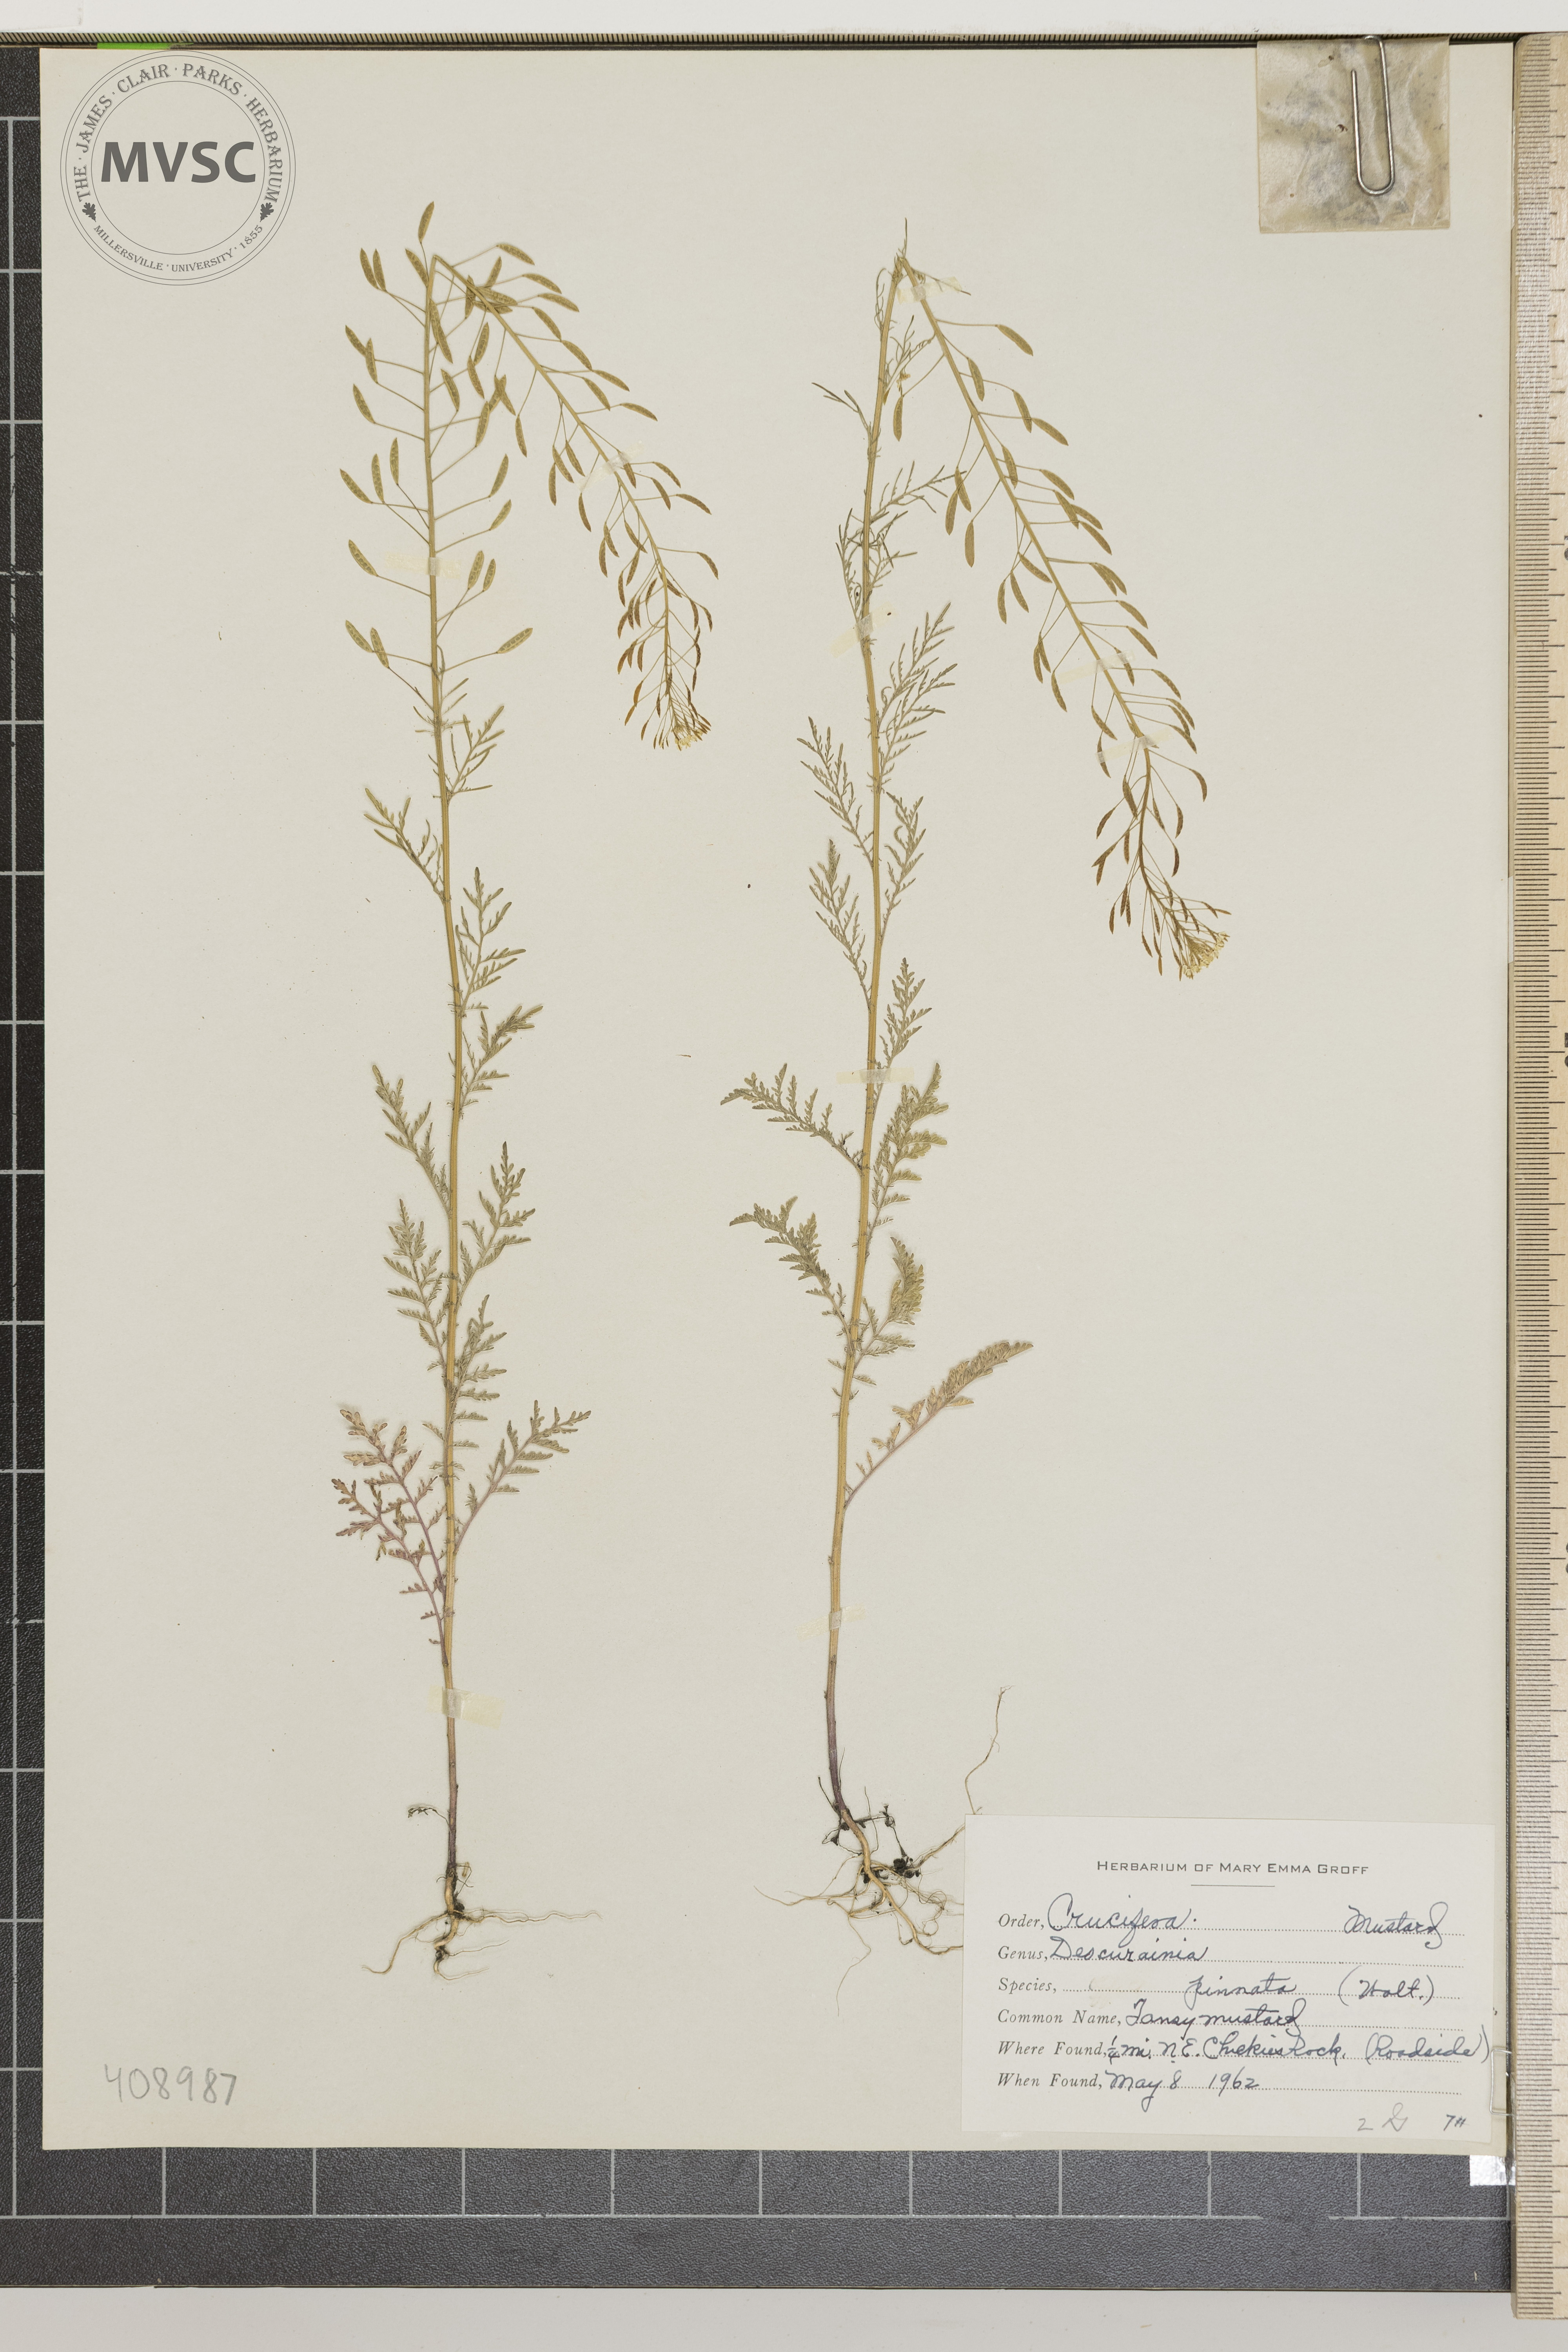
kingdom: Plantae
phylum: Tracheophyta
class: Magnoliopsida
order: Brassicales
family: Brassicaceae
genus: Descurainia
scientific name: Descurainia pinnata
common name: Tansy mustard
